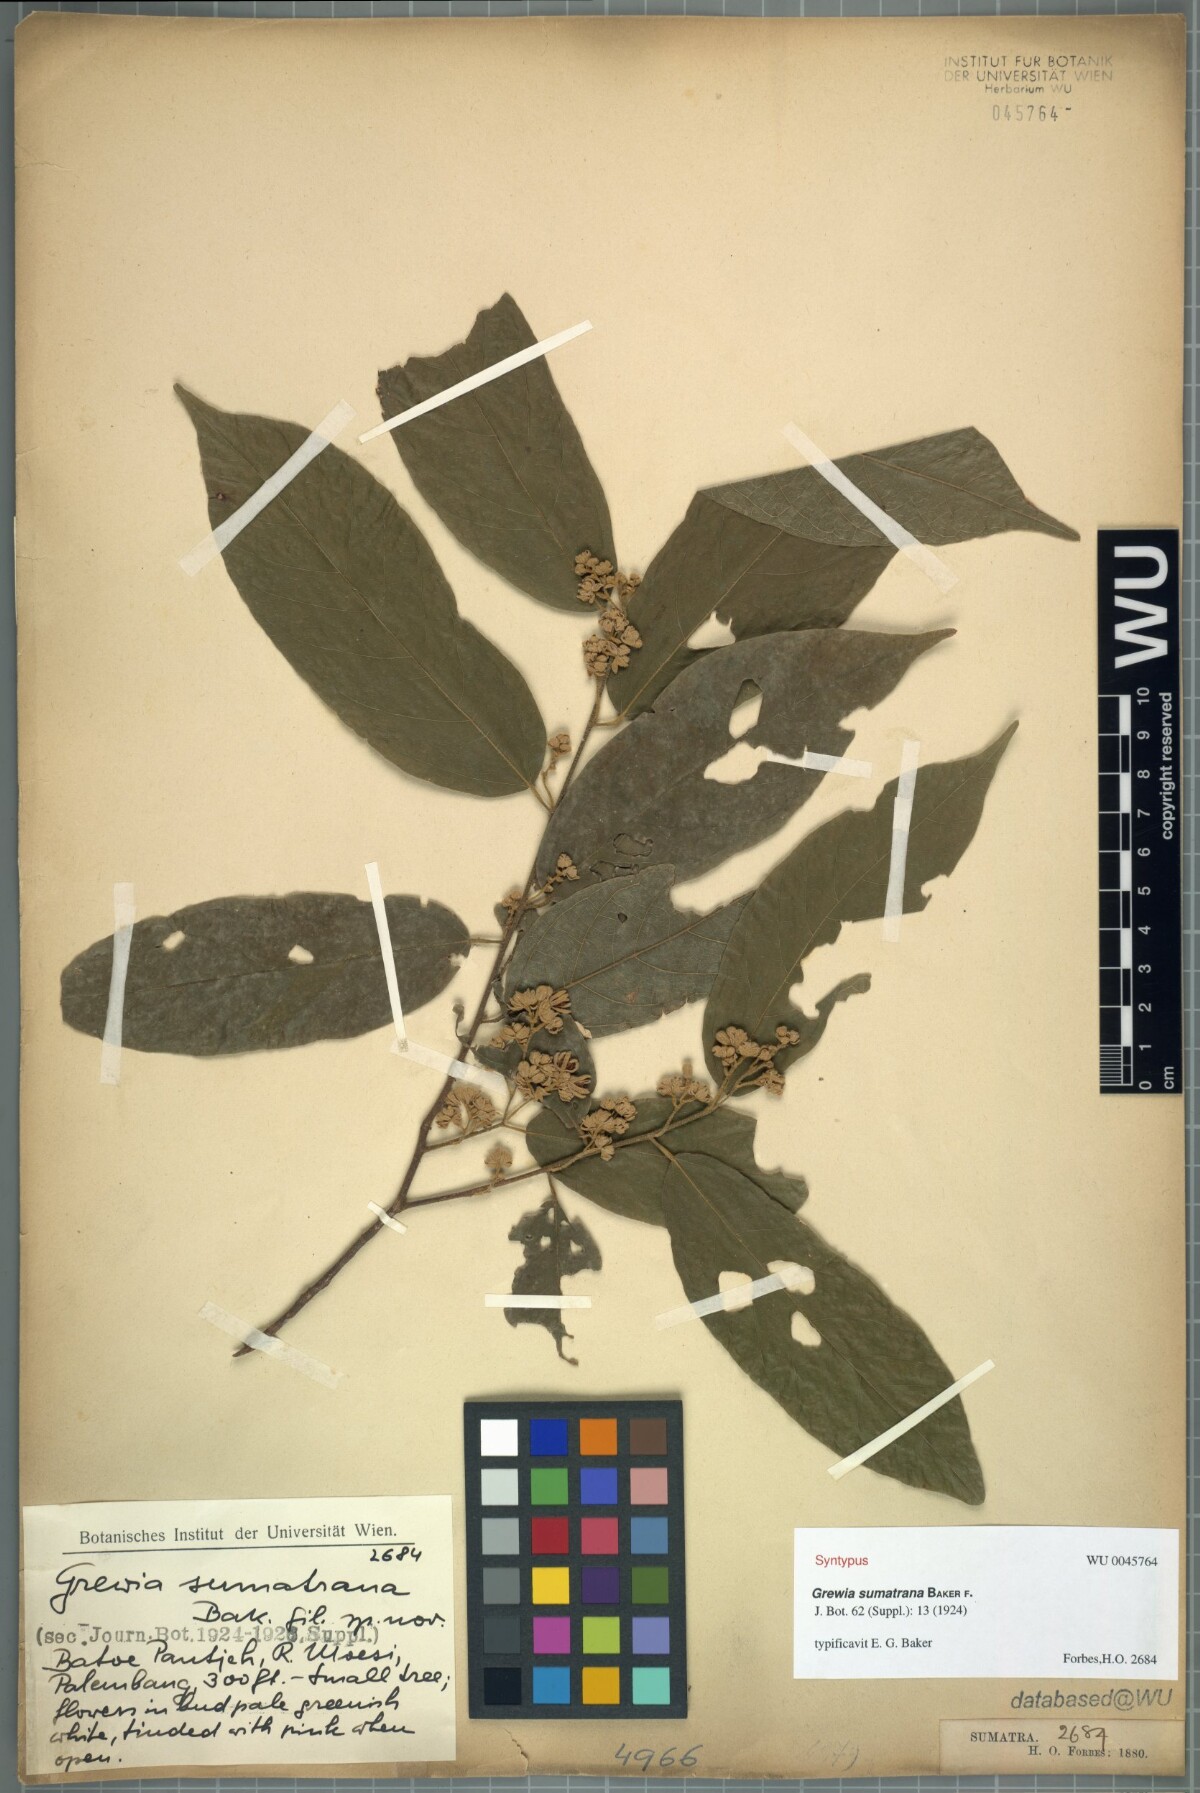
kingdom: Plantae
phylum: Tracheophyta
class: Magnoliopsida
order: Malvales
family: Malvaceae
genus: Microcos
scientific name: Microcos sumatrana
